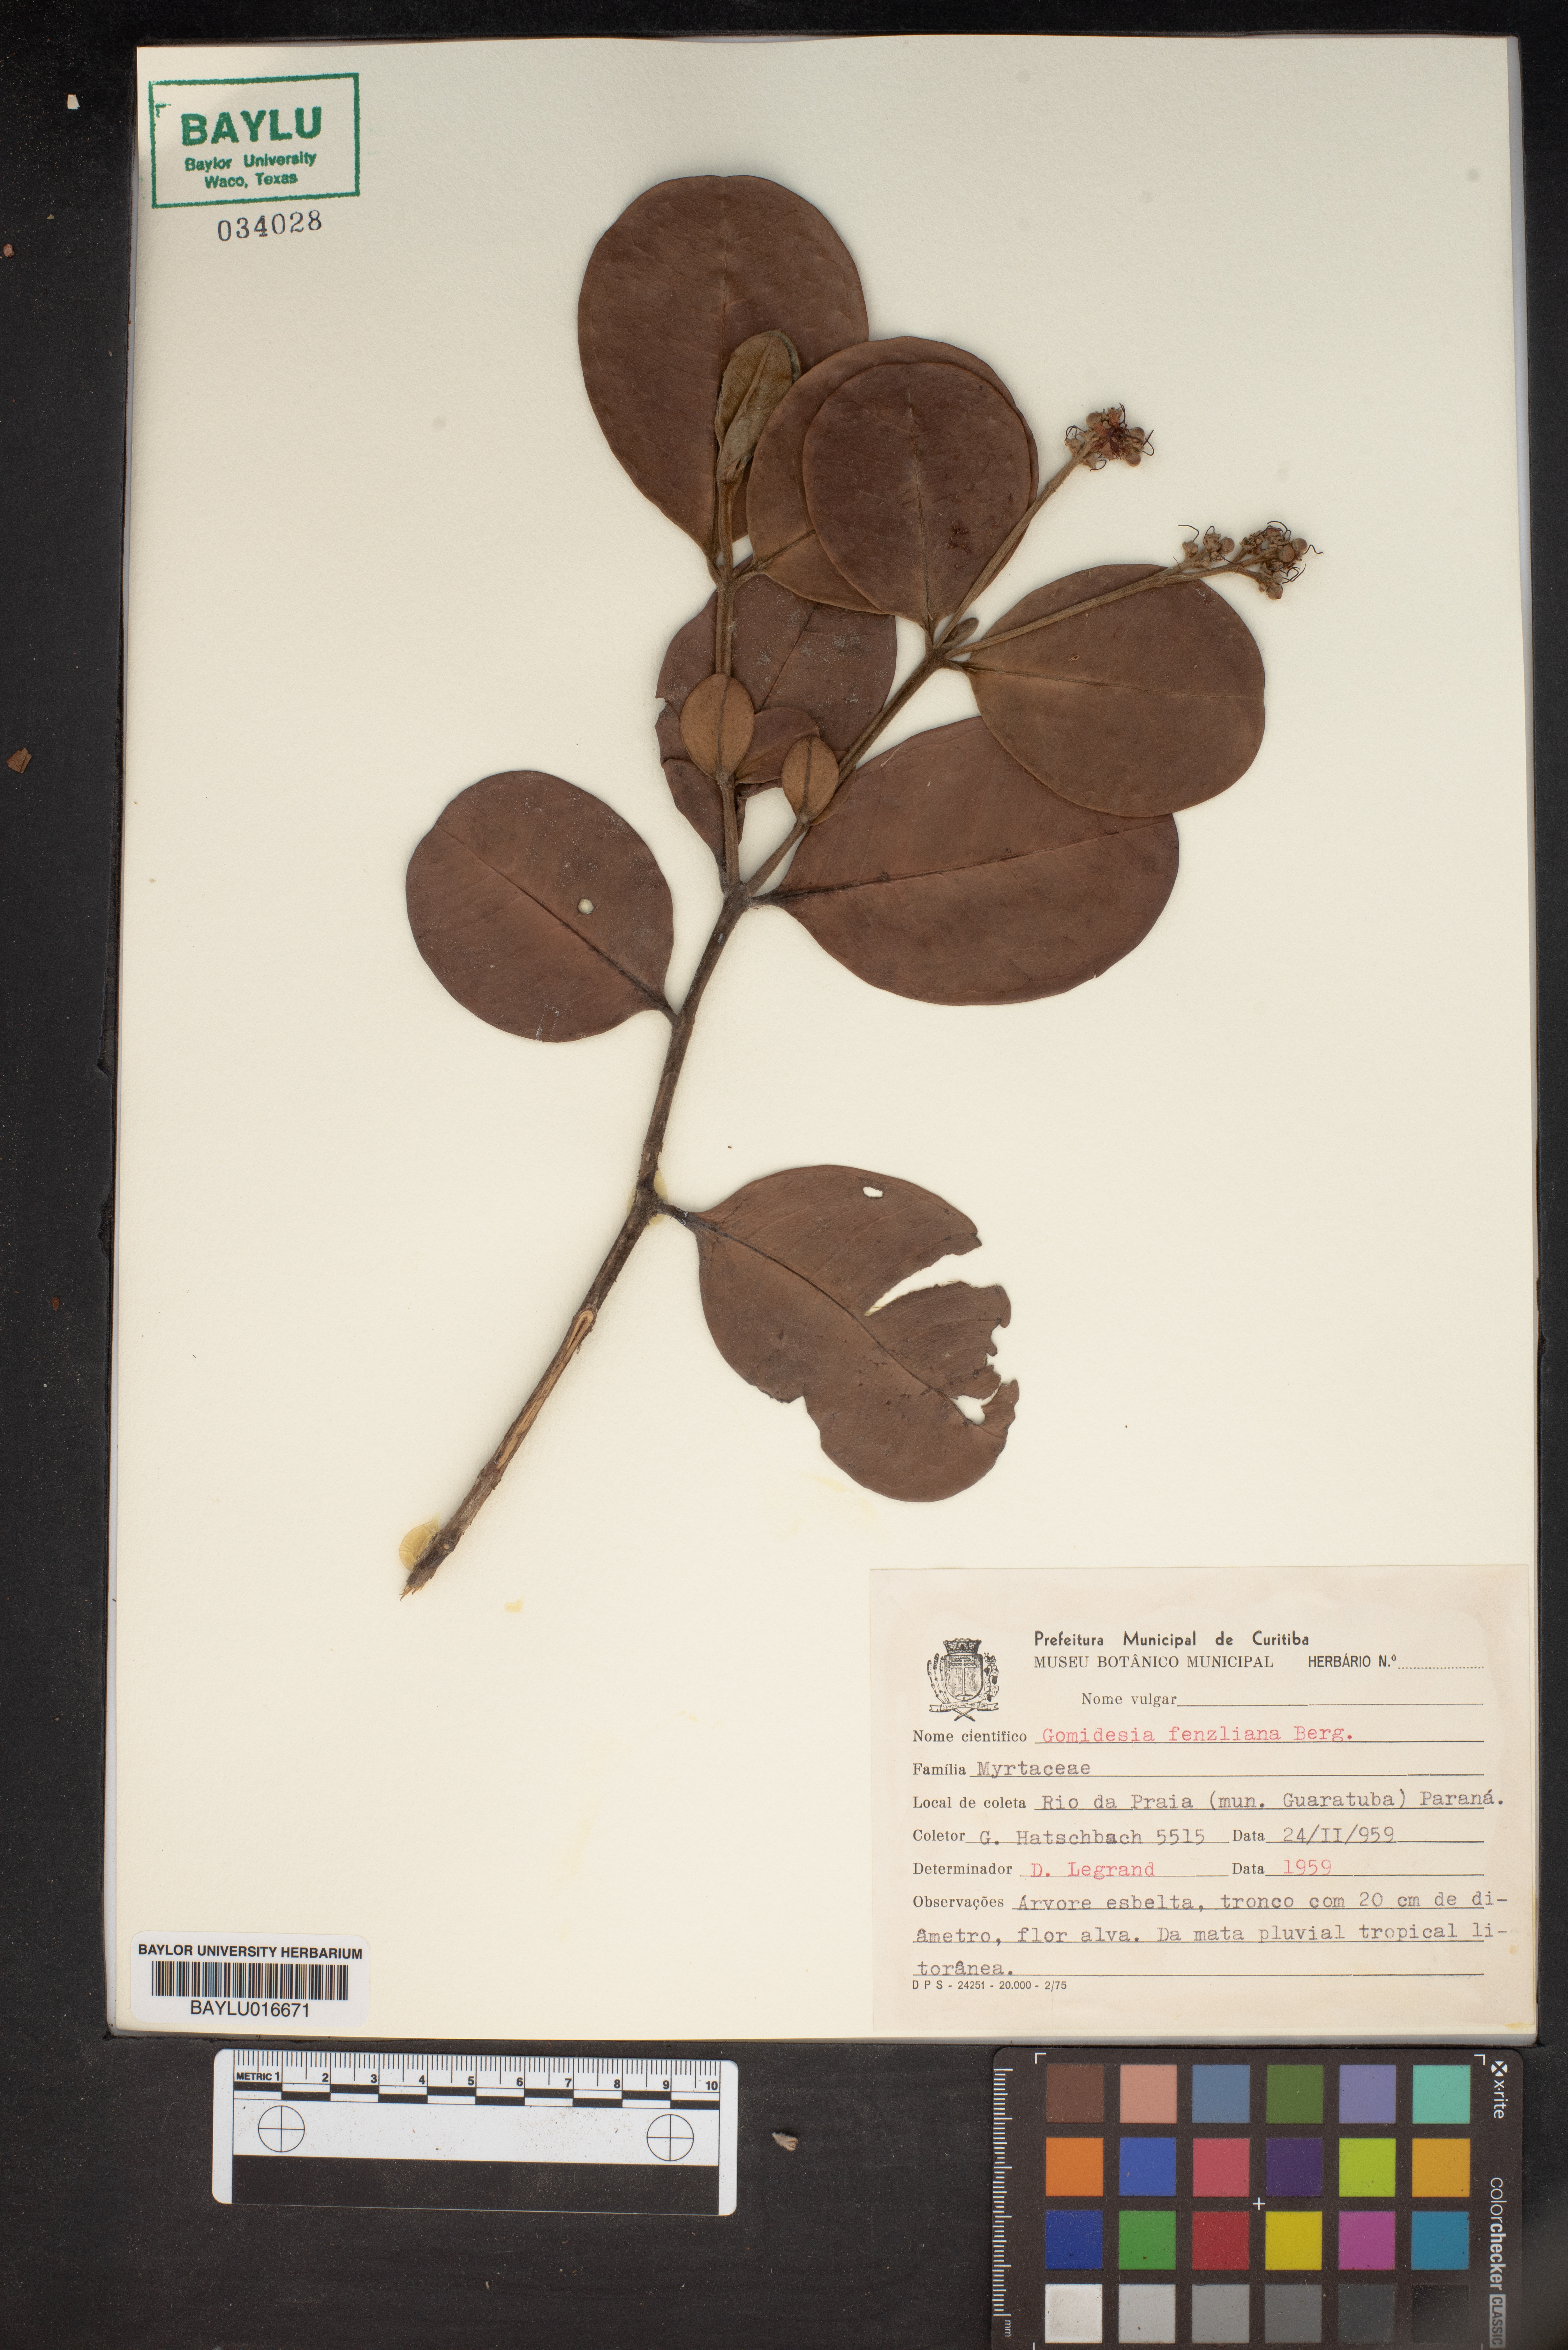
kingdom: Plantae
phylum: Tracheophyta
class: Magnoliopsida
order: Myrtales
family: Myrtaceae
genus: Myrcia
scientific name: Myrcia ilheosensis
